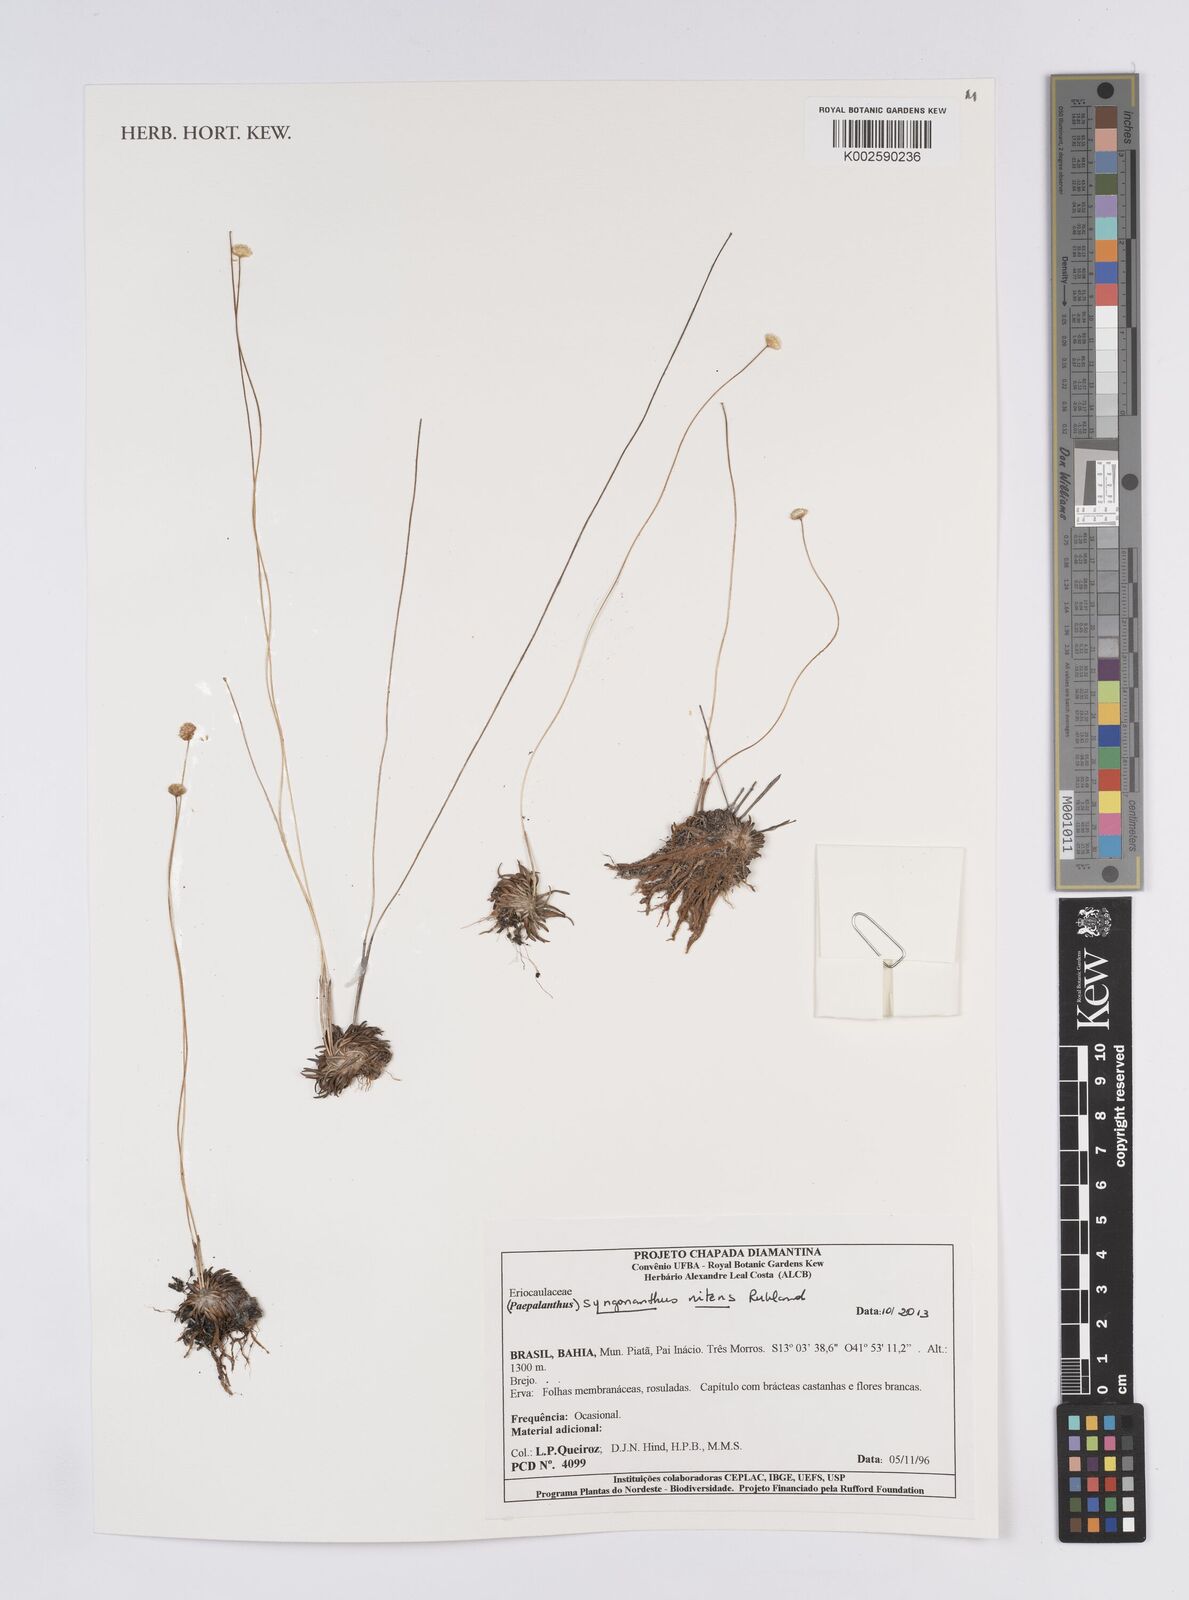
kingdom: Plantae
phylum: Tracheophyta
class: Liliopsida
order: Poales
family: Eriocaulaceae
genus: Syngonanthus
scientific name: Syngonanthus nitens
